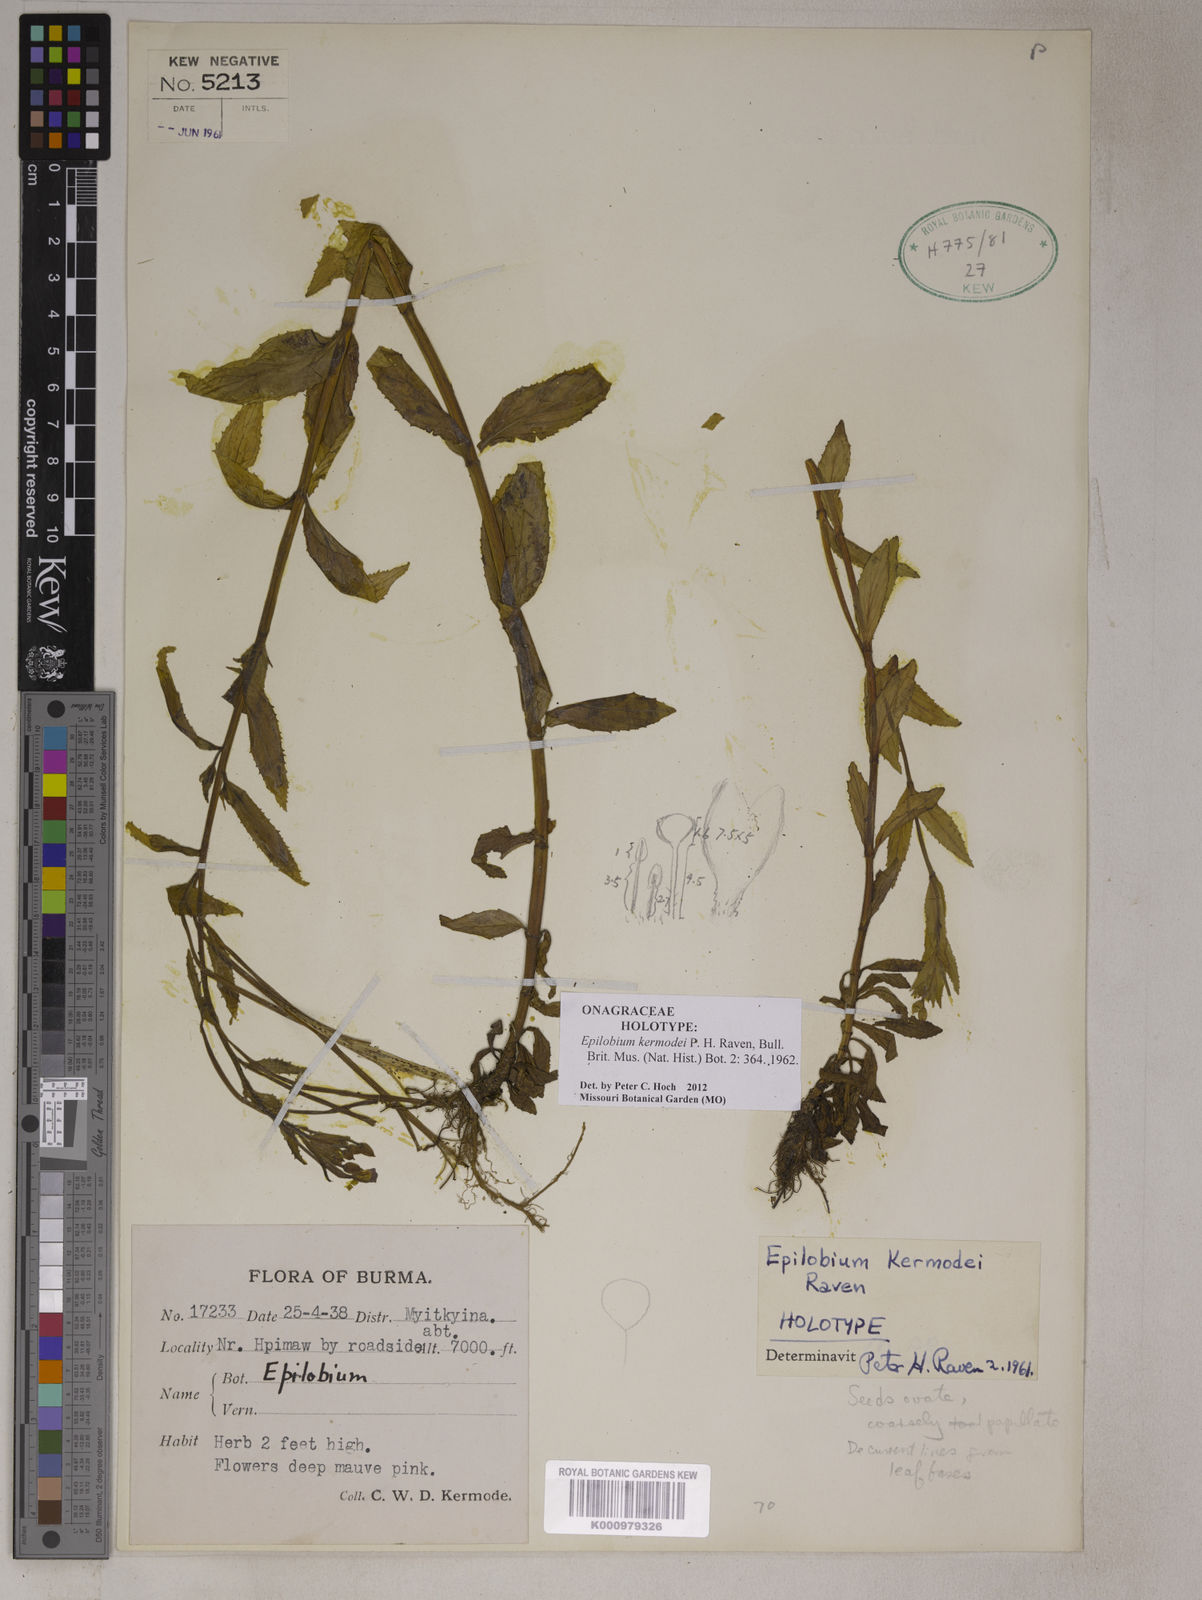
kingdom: Plantae
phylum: Tracheophyta
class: Magnoliopsida
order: Myrtales
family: Onagraceae
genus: Epilobium
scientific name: Epilobium kermodei
